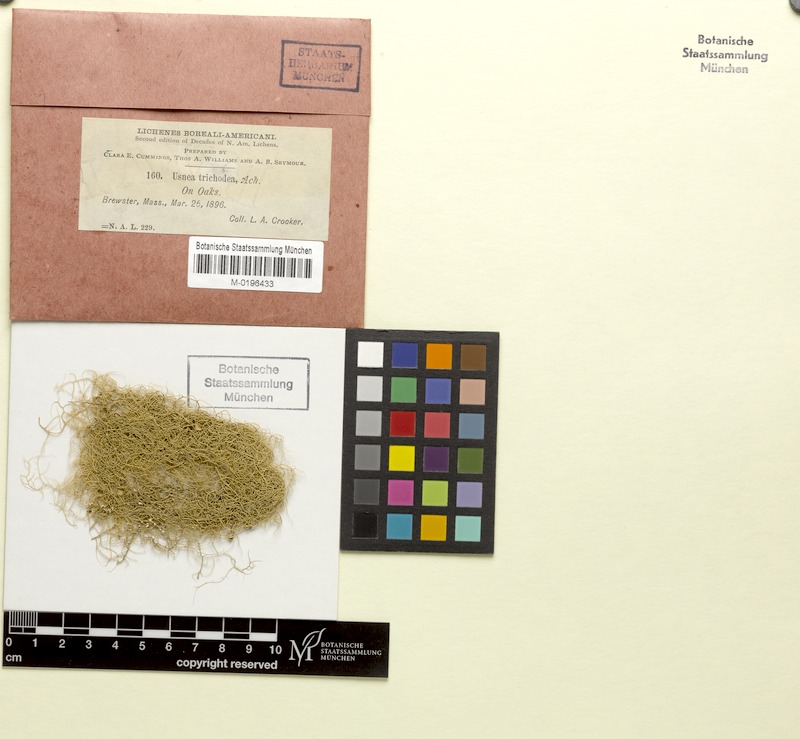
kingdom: Fungi
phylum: Ascomycota
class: Lecanoromycetes
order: Lecanorales
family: Parmeliaceae
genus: Usnea
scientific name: Usnea trichodea
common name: Bony beard lichen
